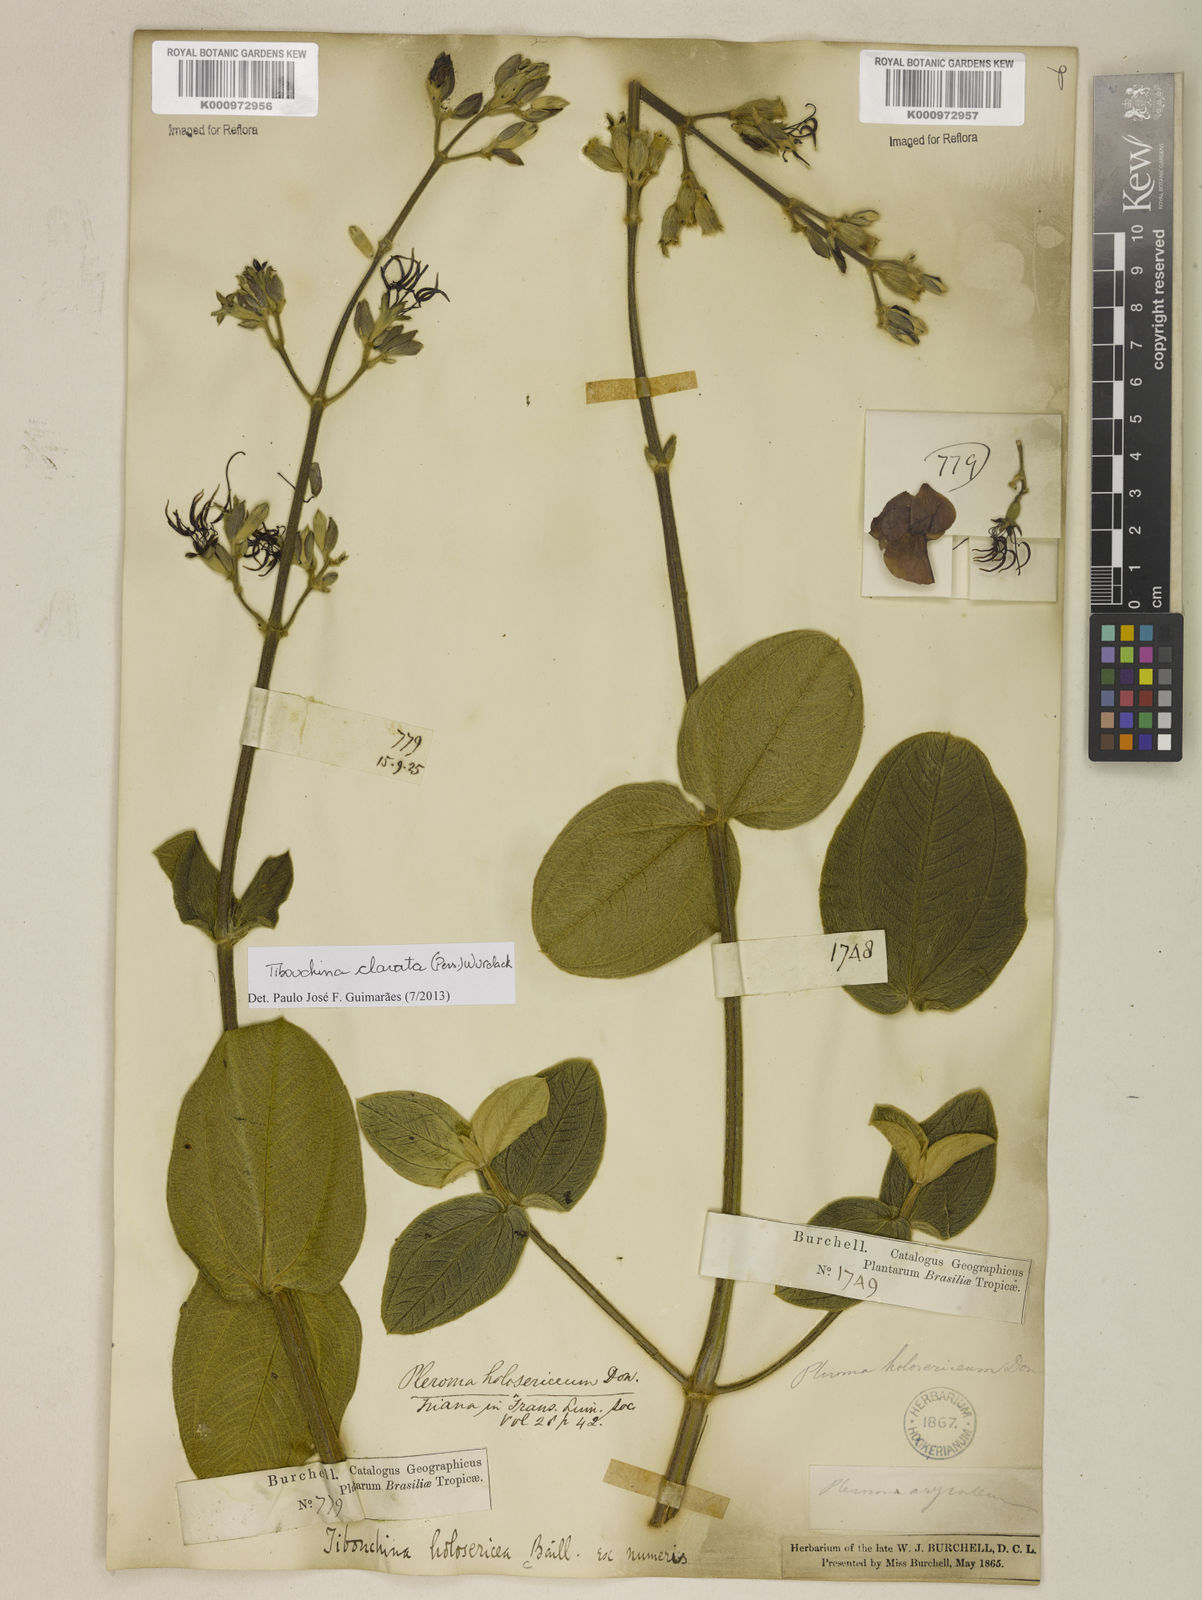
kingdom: Plantae
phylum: Tracheophyta
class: Magnoliopsida
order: Myrtales
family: Melastomataceae
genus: Pleroma
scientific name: Pleroma clavatum
